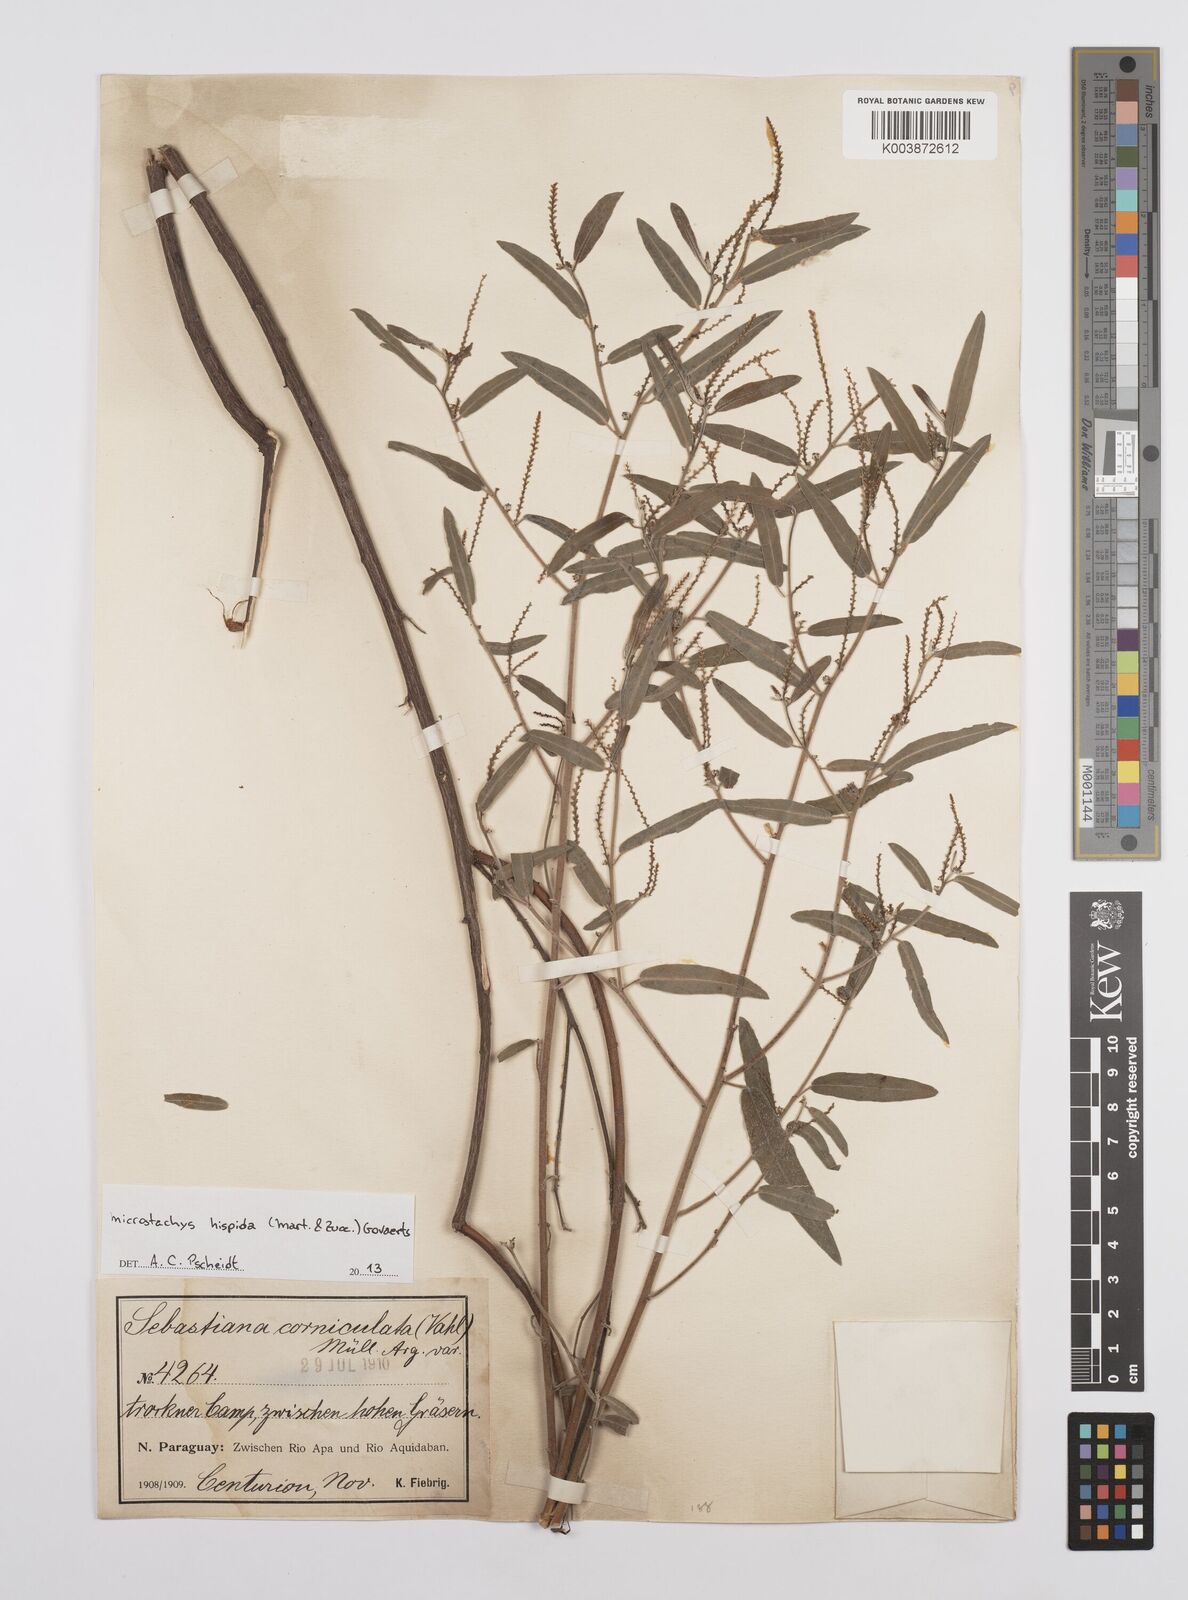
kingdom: Plantae
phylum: Tracheophyta
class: Magnoliopsida
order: Malpighiales
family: Euphorbiaceae
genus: Microstachys
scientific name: Microstachys hispida
